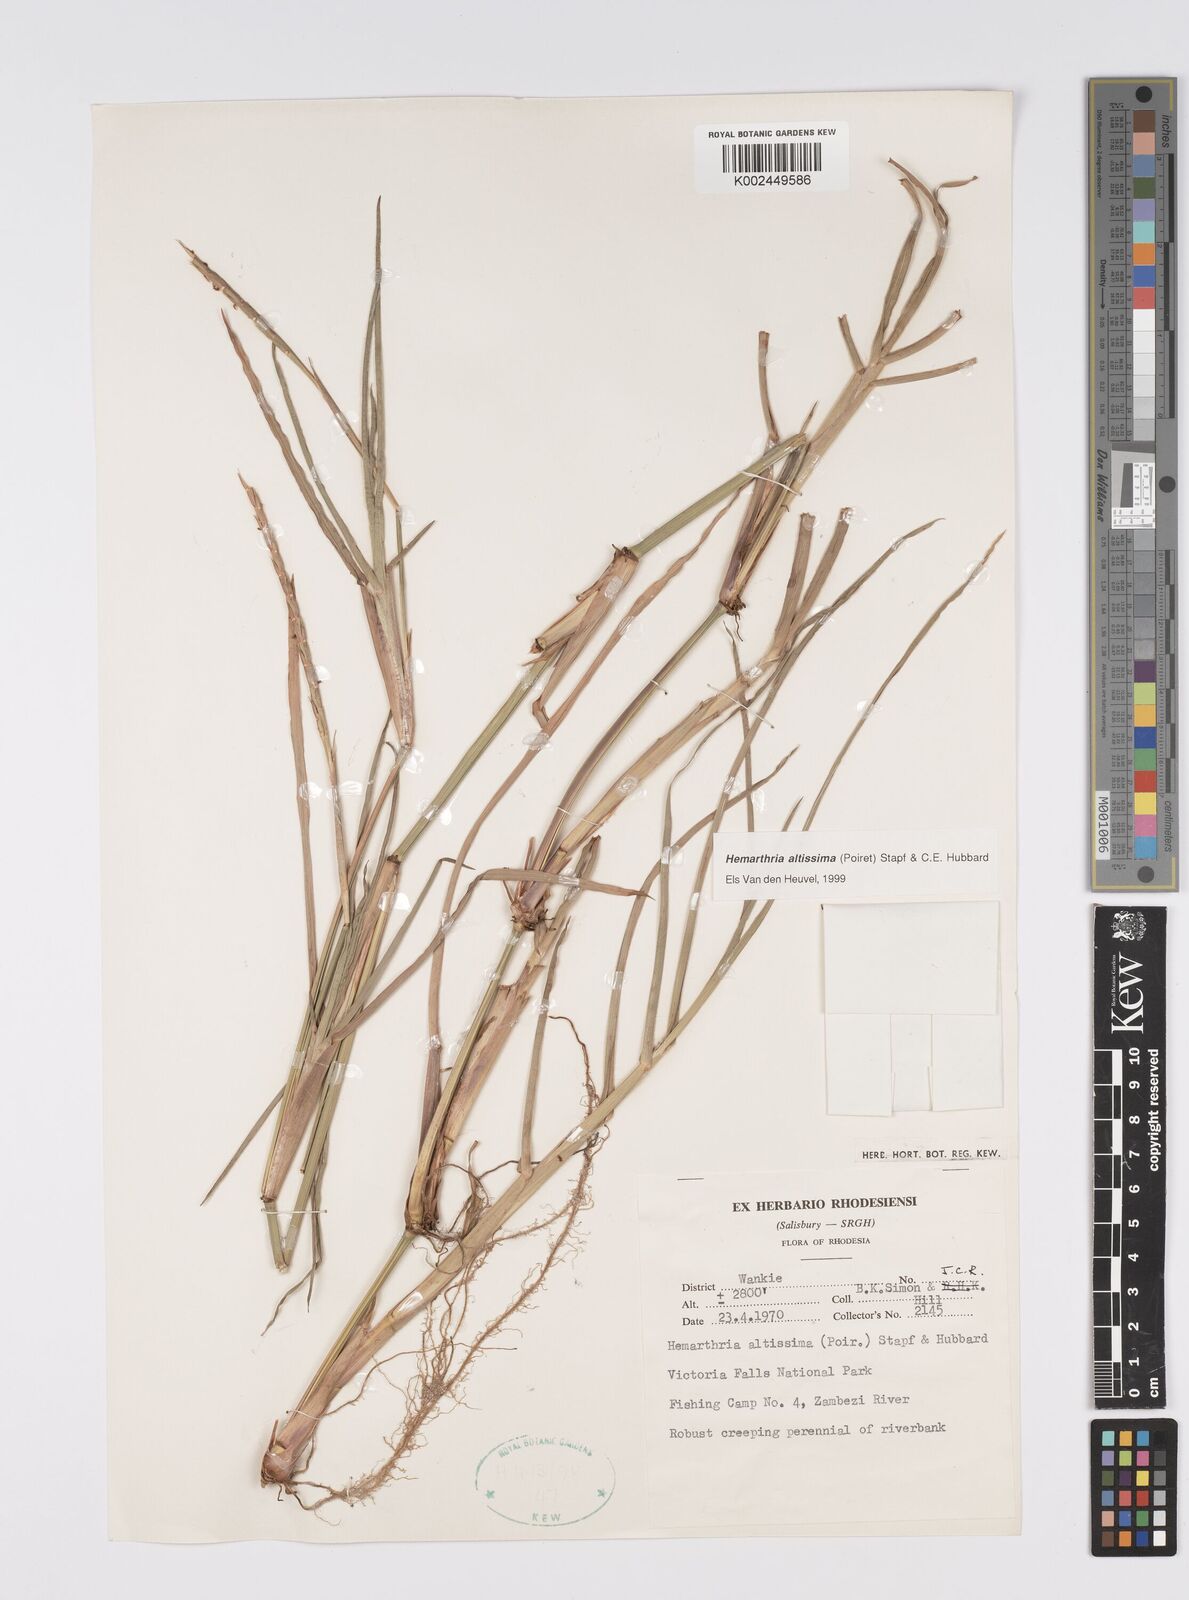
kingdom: Plantae
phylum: Tracheophyta
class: Liliopsida
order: Poales
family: Poaceae
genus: Hemarthria
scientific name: Hemarthria altissima
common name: African jointgrass
